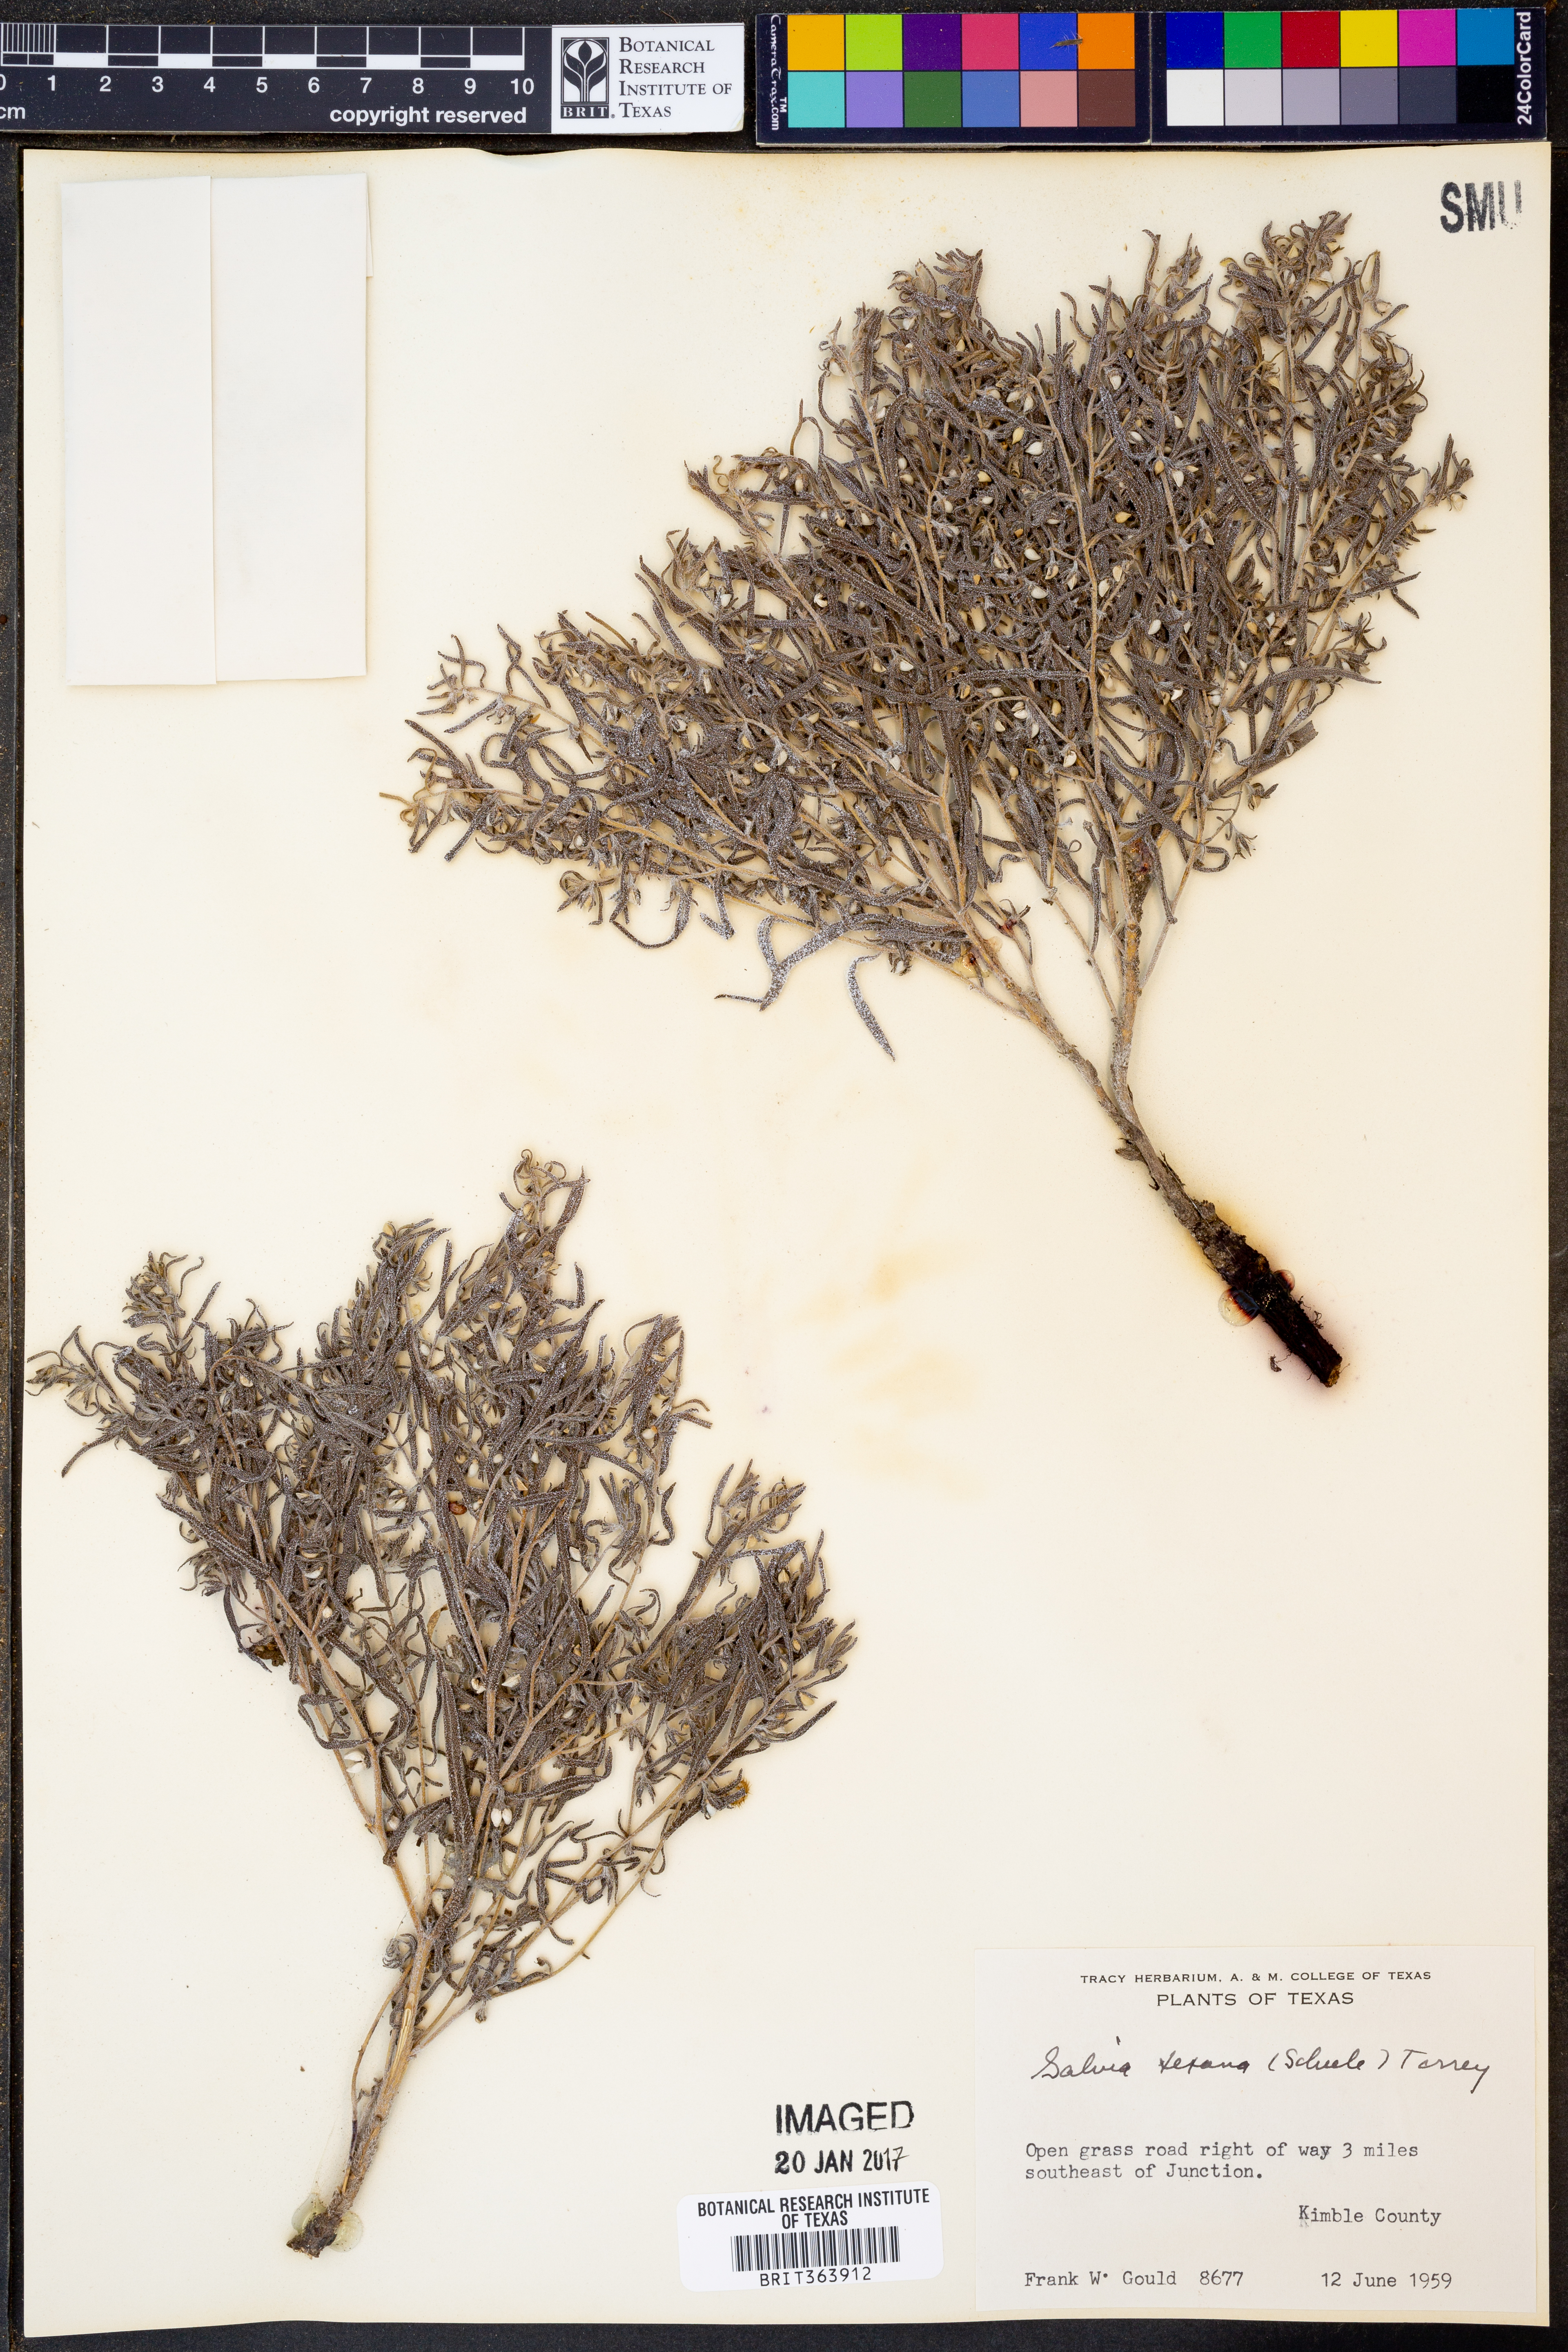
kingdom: Plantae
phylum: Tracheophyta
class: Magnoliopsida
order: Lamiales
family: Lamiaceae
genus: Salvia
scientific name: Salvia texana
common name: Texas sage
